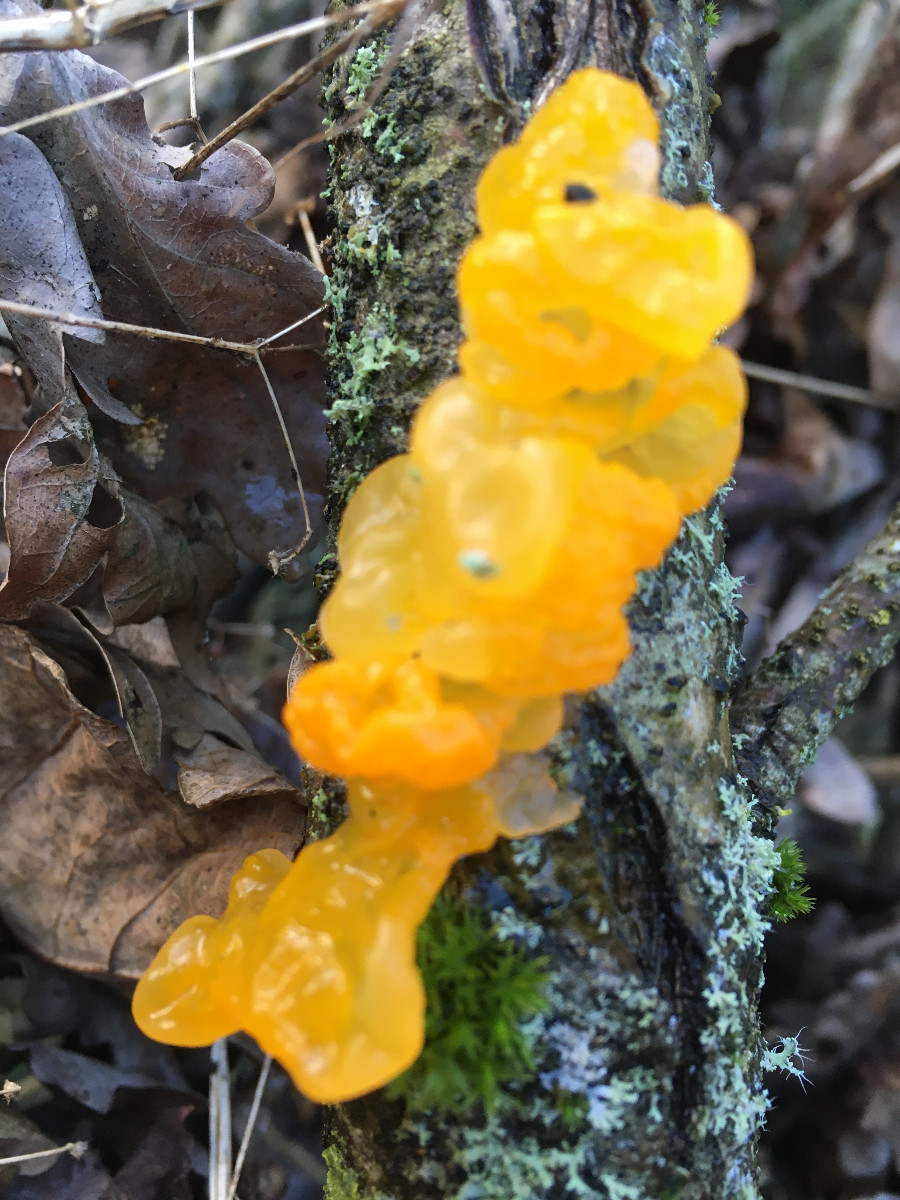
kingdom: Fungi
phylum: Basidiomycota
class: Tremellomycetes
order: Tremellales
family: Tremellaceae
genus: Tremella
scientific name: Tremella mesenterica
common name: gul bævresvamp
